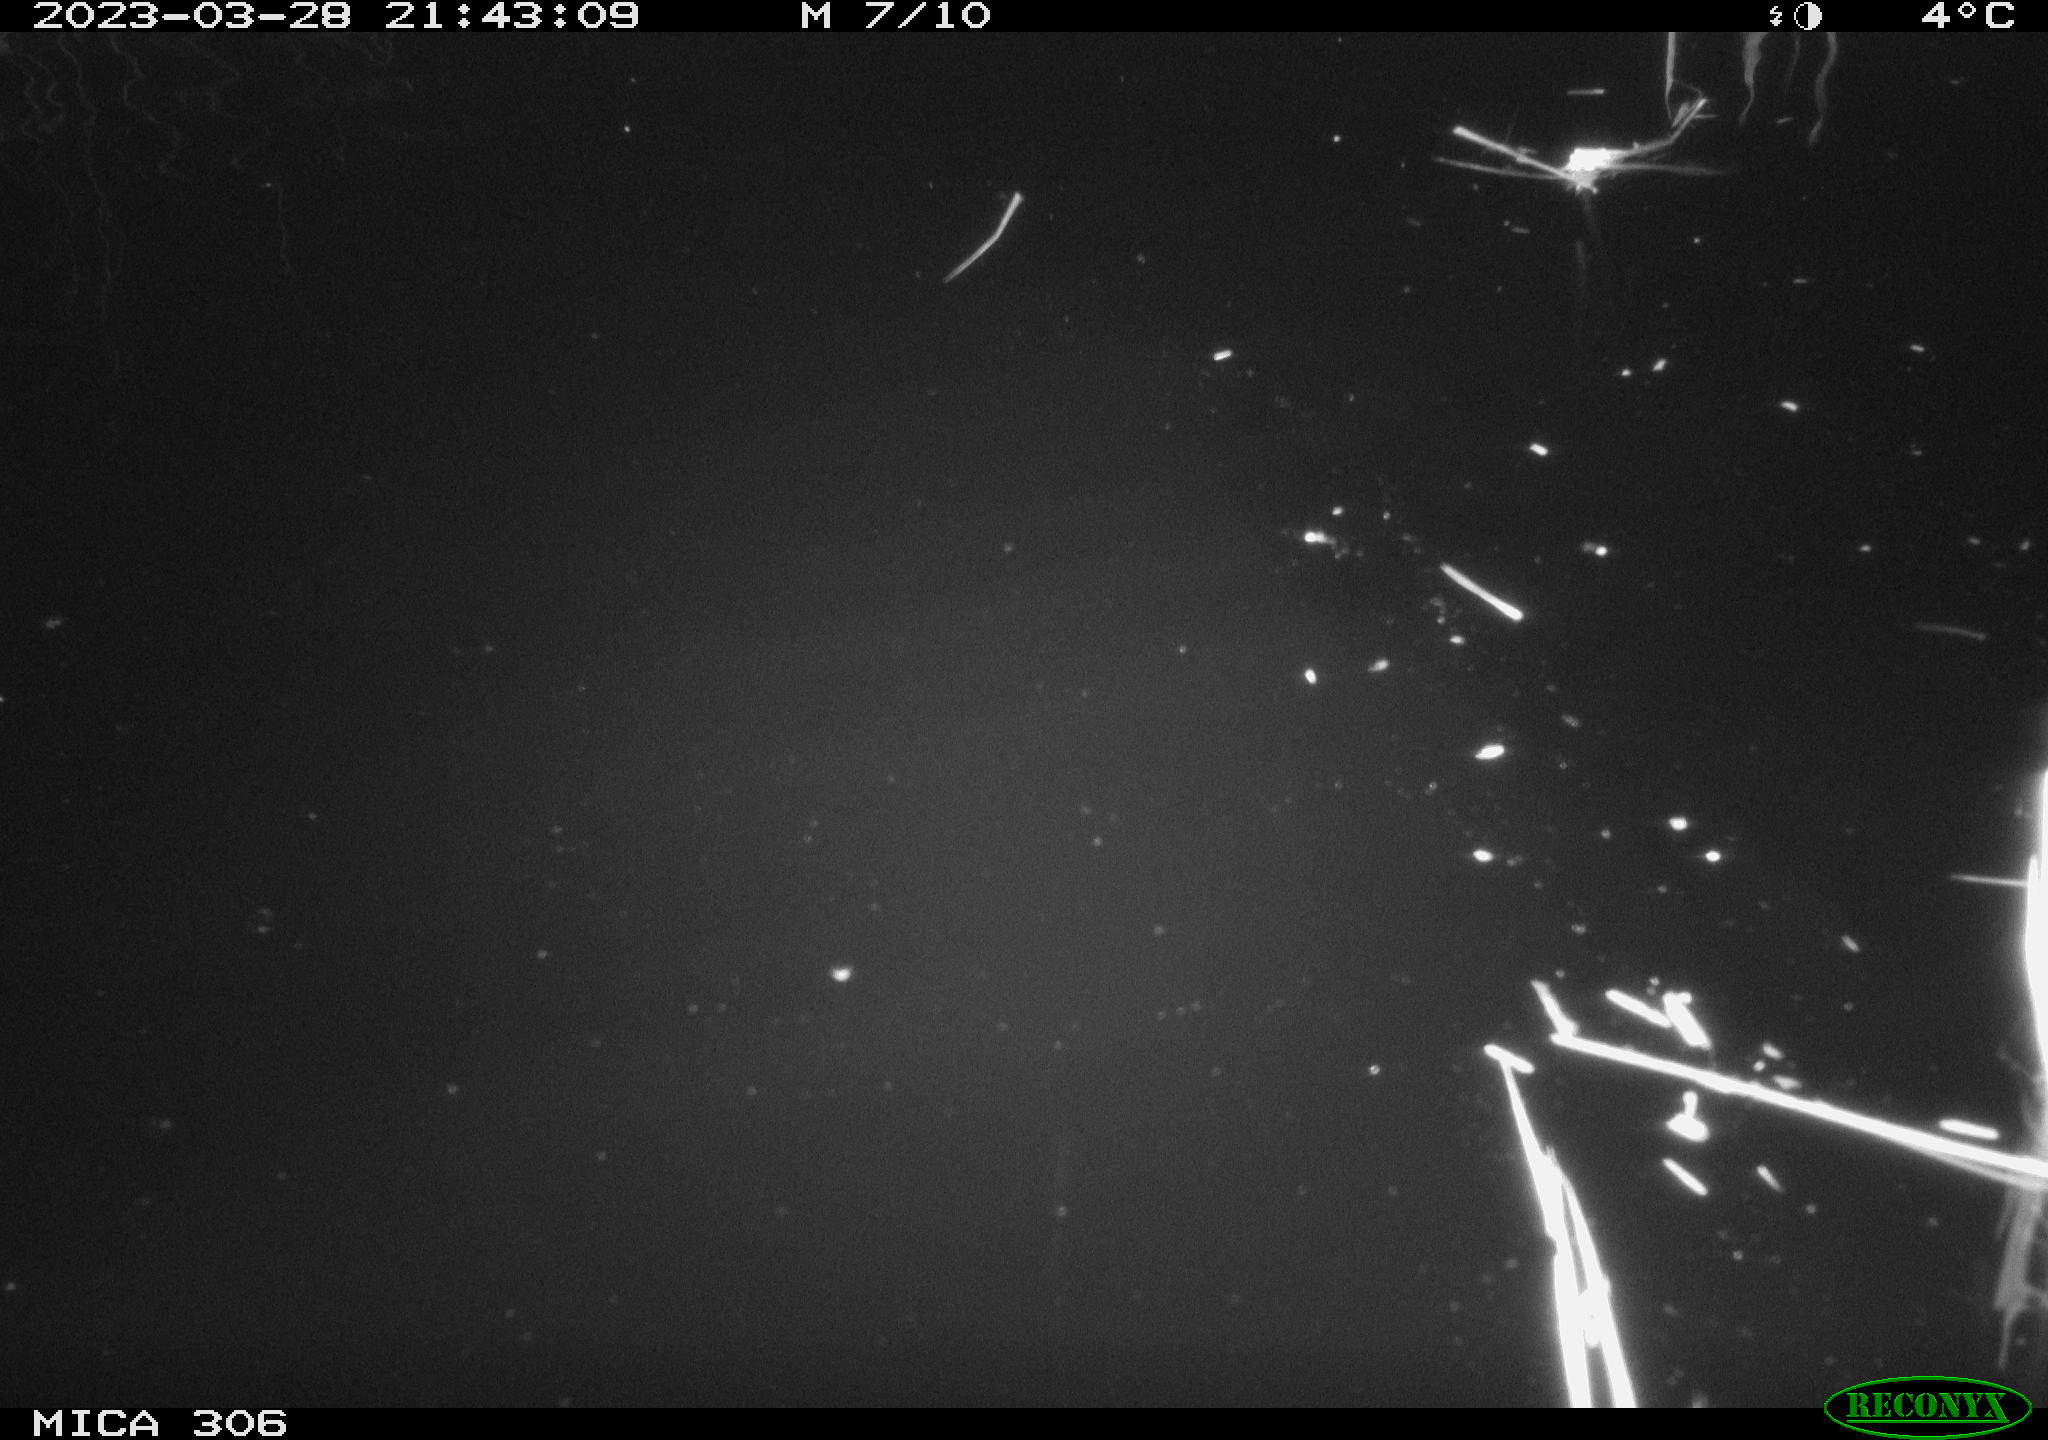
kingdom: Animalia
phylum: Chordata
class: Mammalia
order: Rodentia
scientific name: Rodentia
